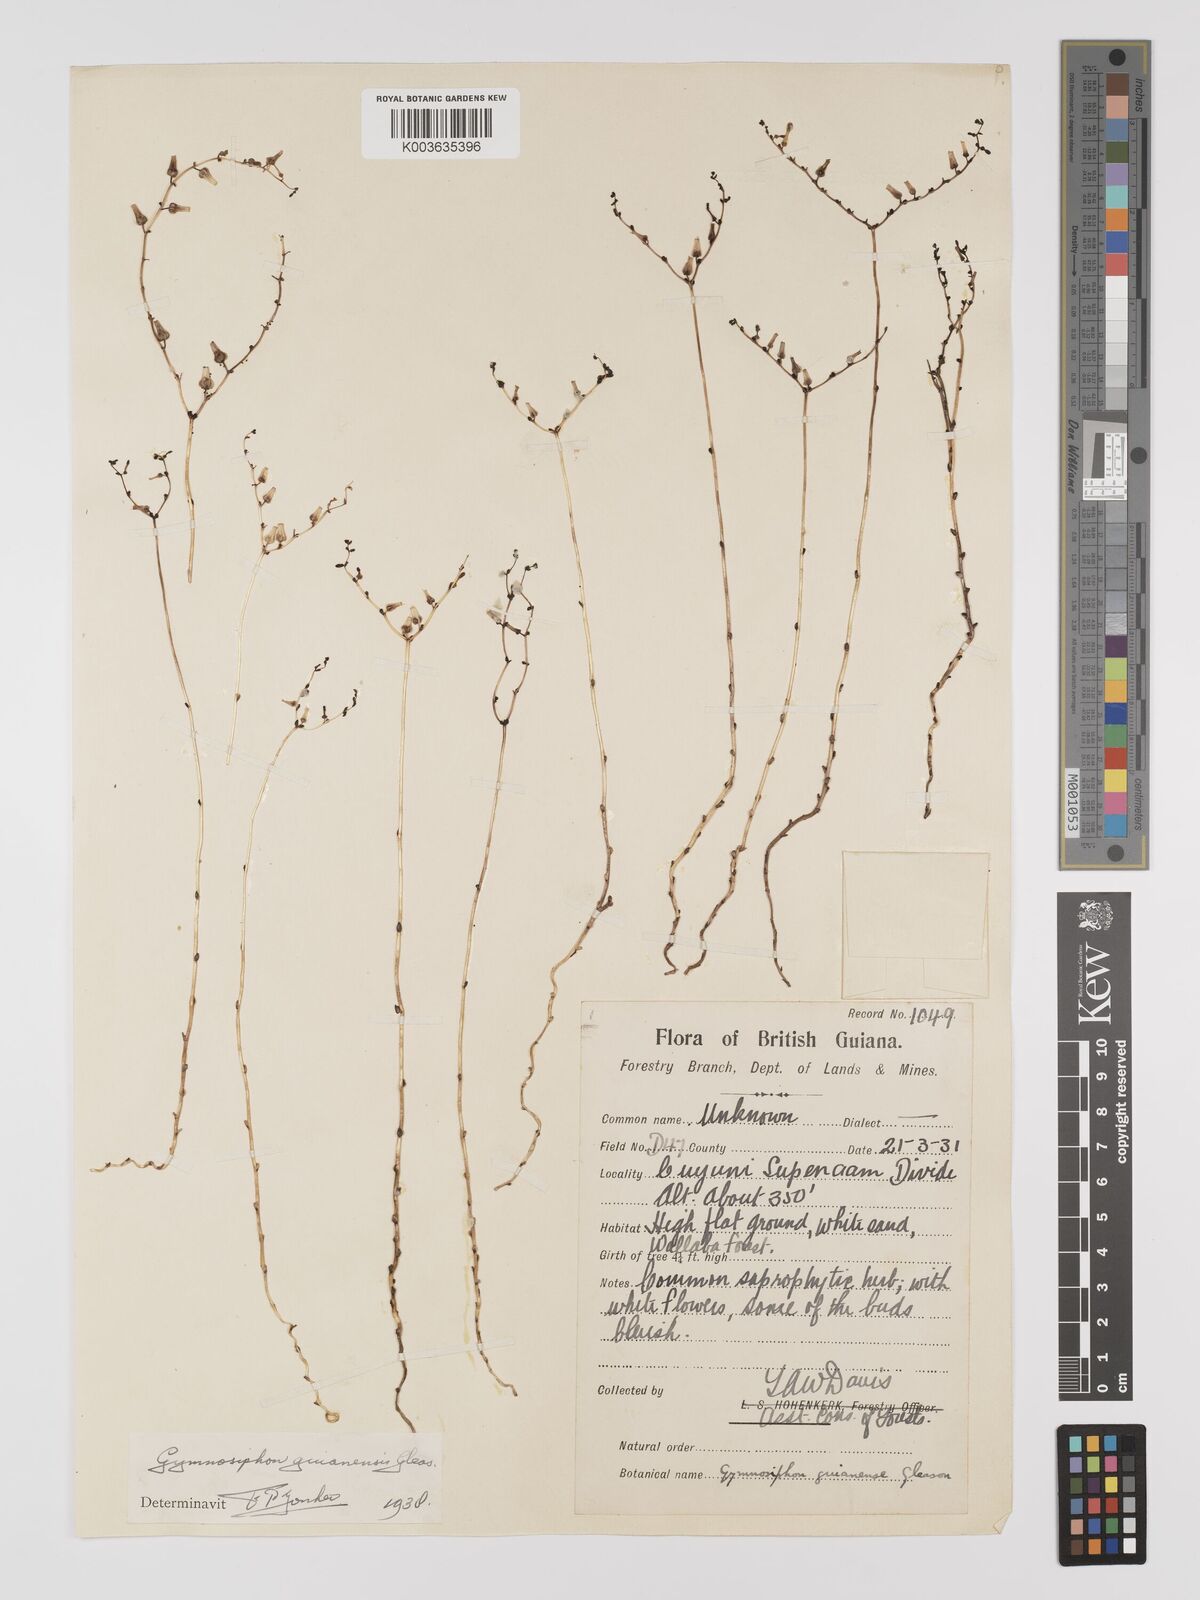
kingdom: Plantae
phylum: Tracheophyta
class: Liliopsida
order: Dioscoreales
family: Burmanniaceae
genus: Gymnosiphon
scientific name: Gymnosiphon guianensis
